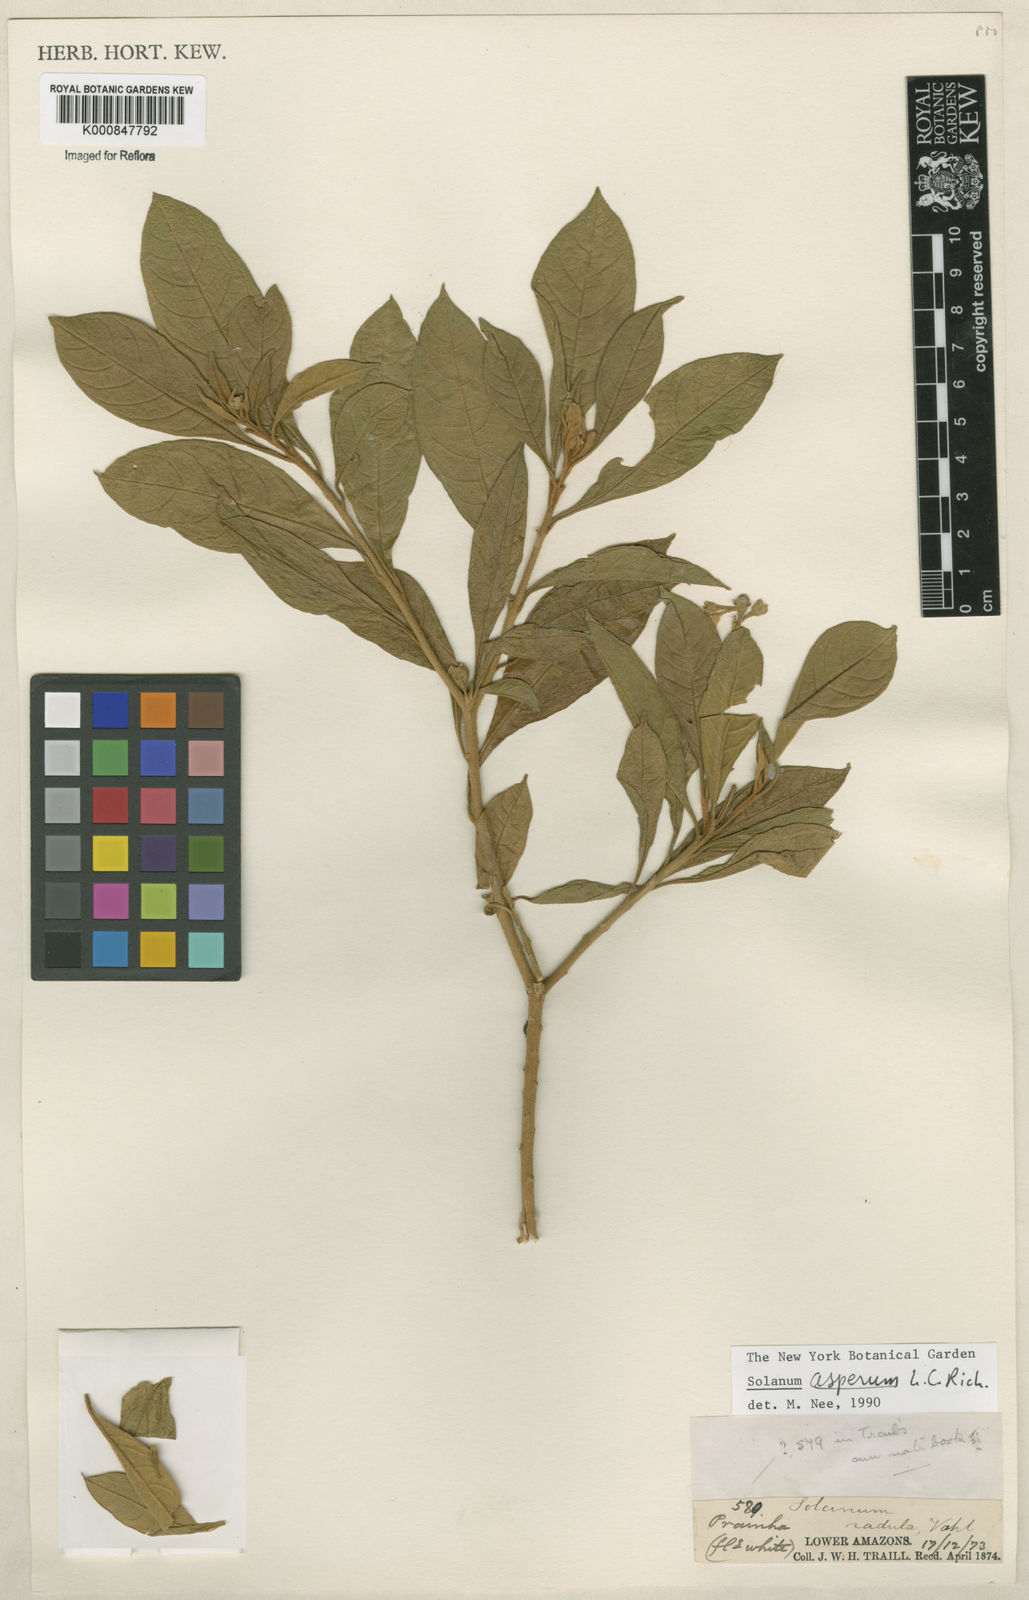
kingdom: Plantae
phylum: Tracheophyta
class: Magnoliopsida
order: Solanales
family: Solanaceae
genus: Solanum
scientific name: Solanum asperum
